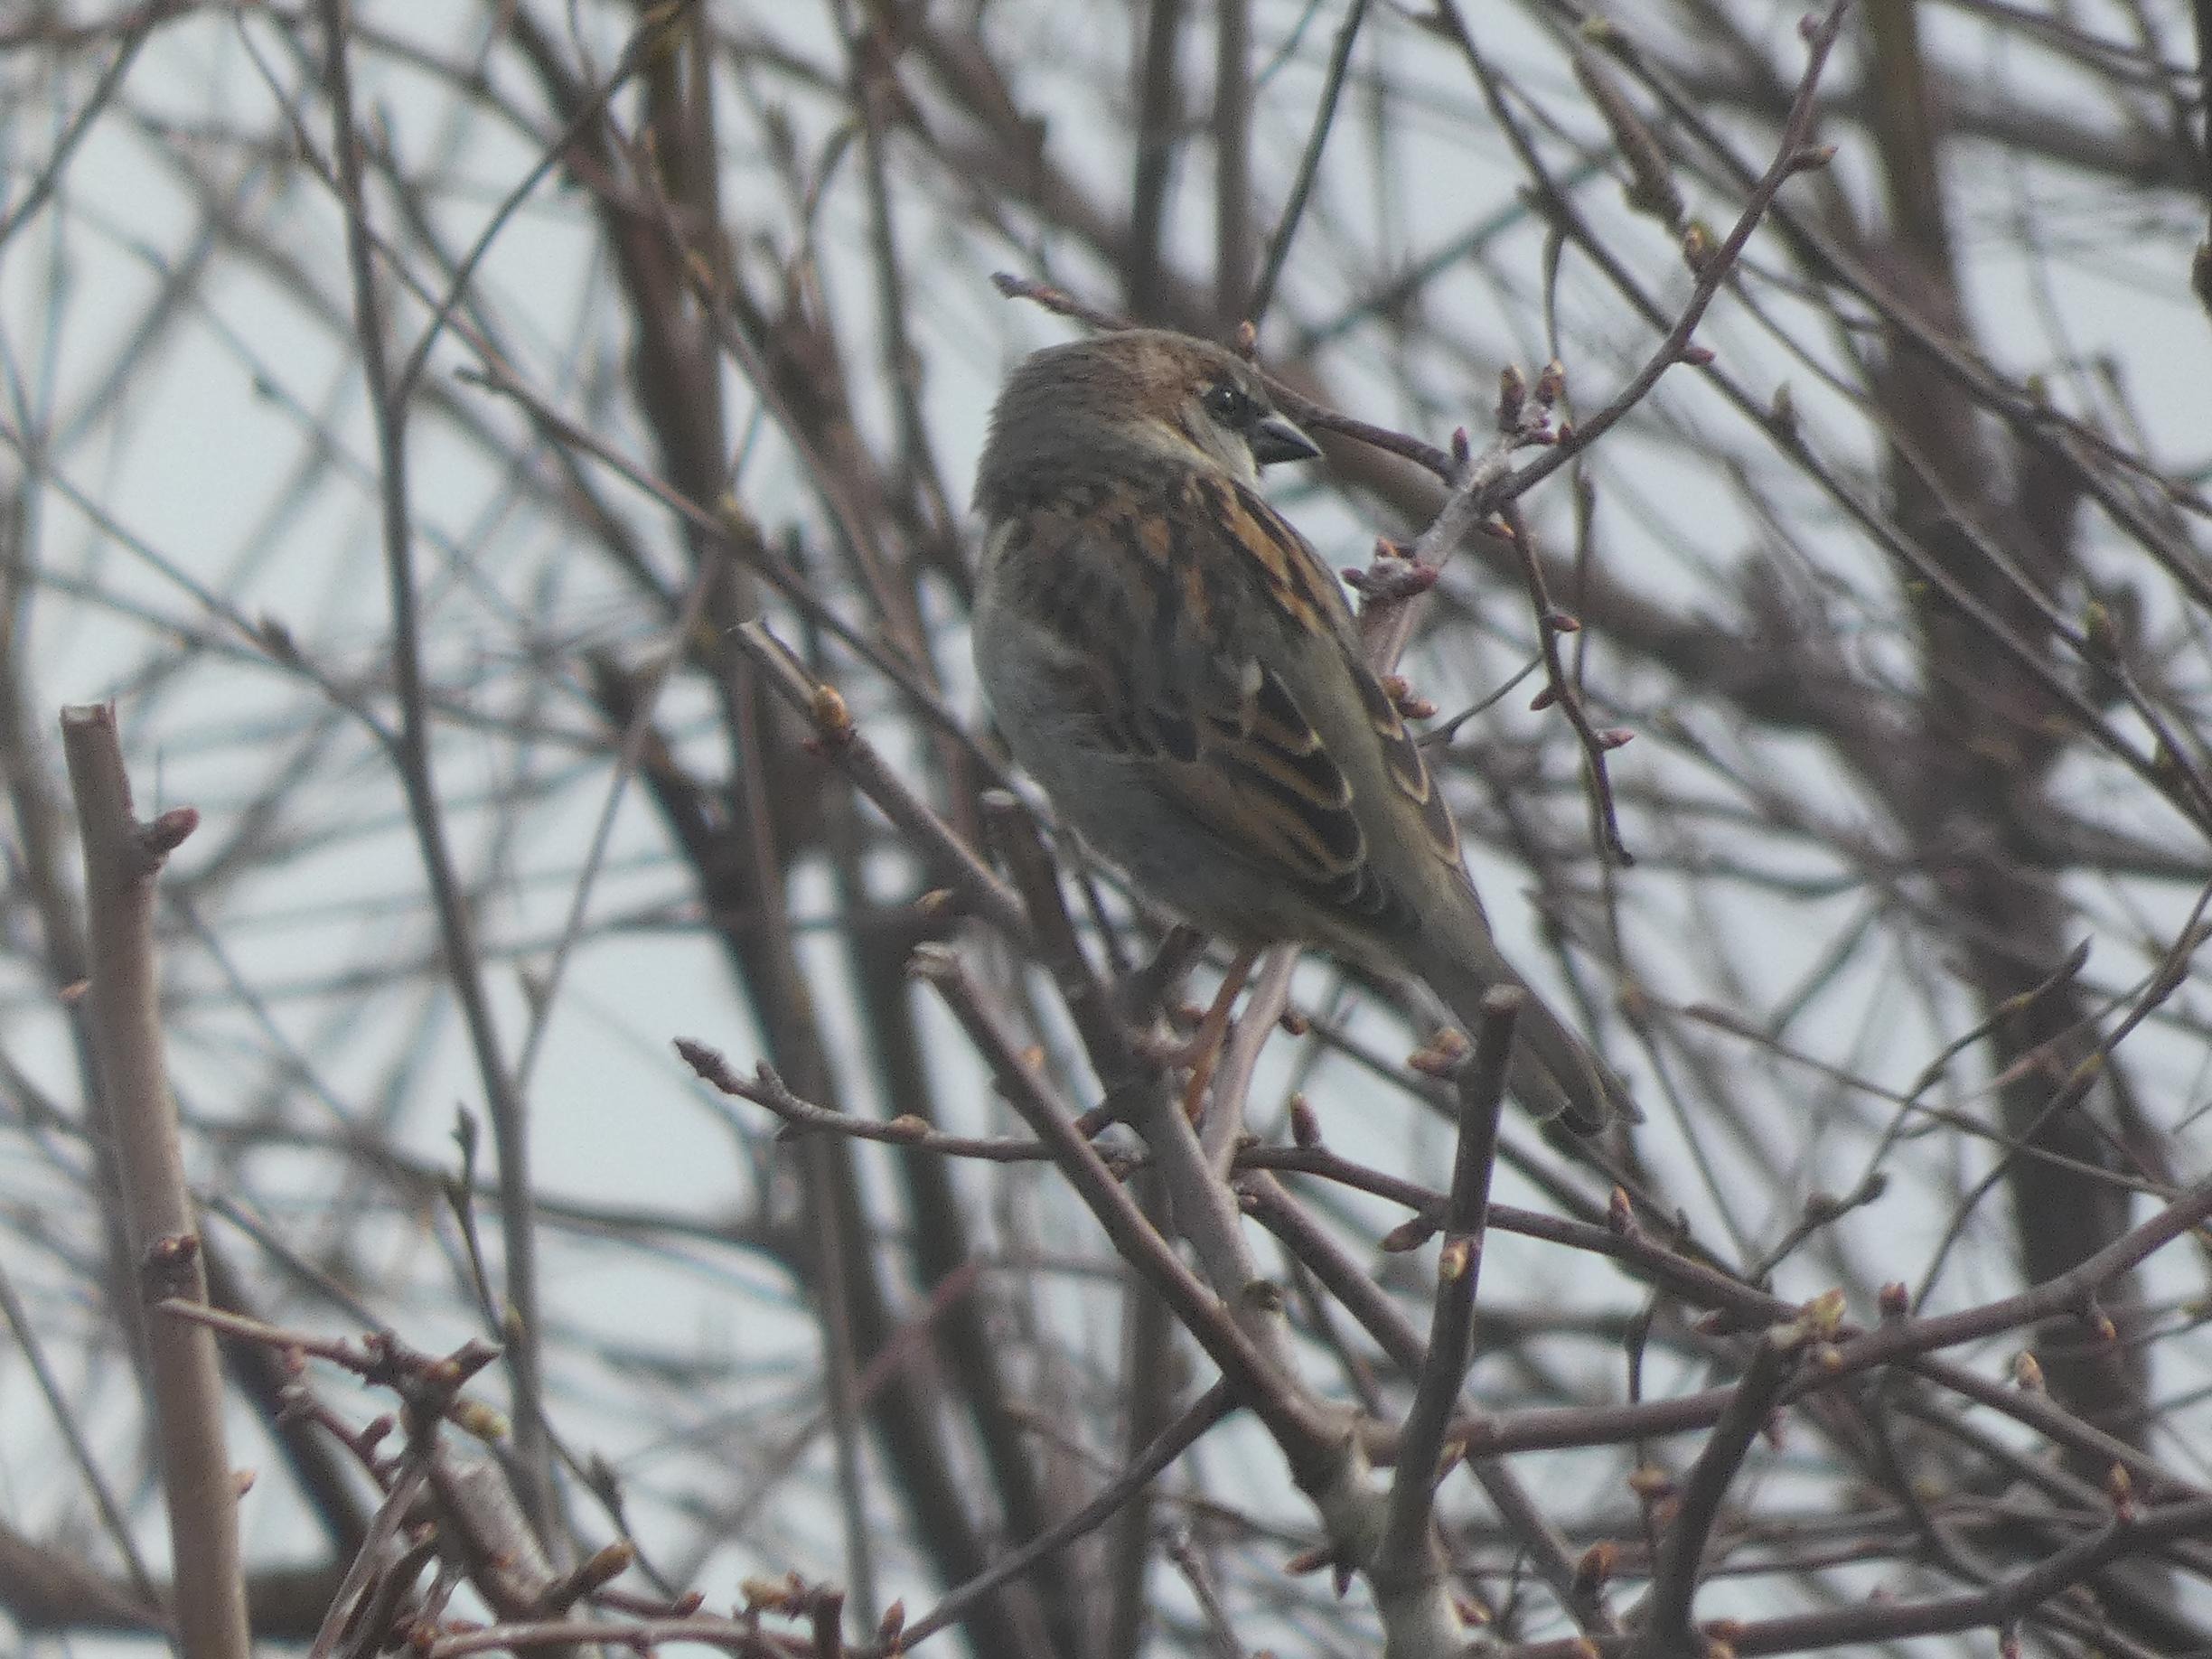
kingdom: Animalia
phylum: Chordata
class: Aves
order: Passeriformes
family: Passeridae
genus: Passer
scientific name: Passer domesticus
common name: Gråspurv
